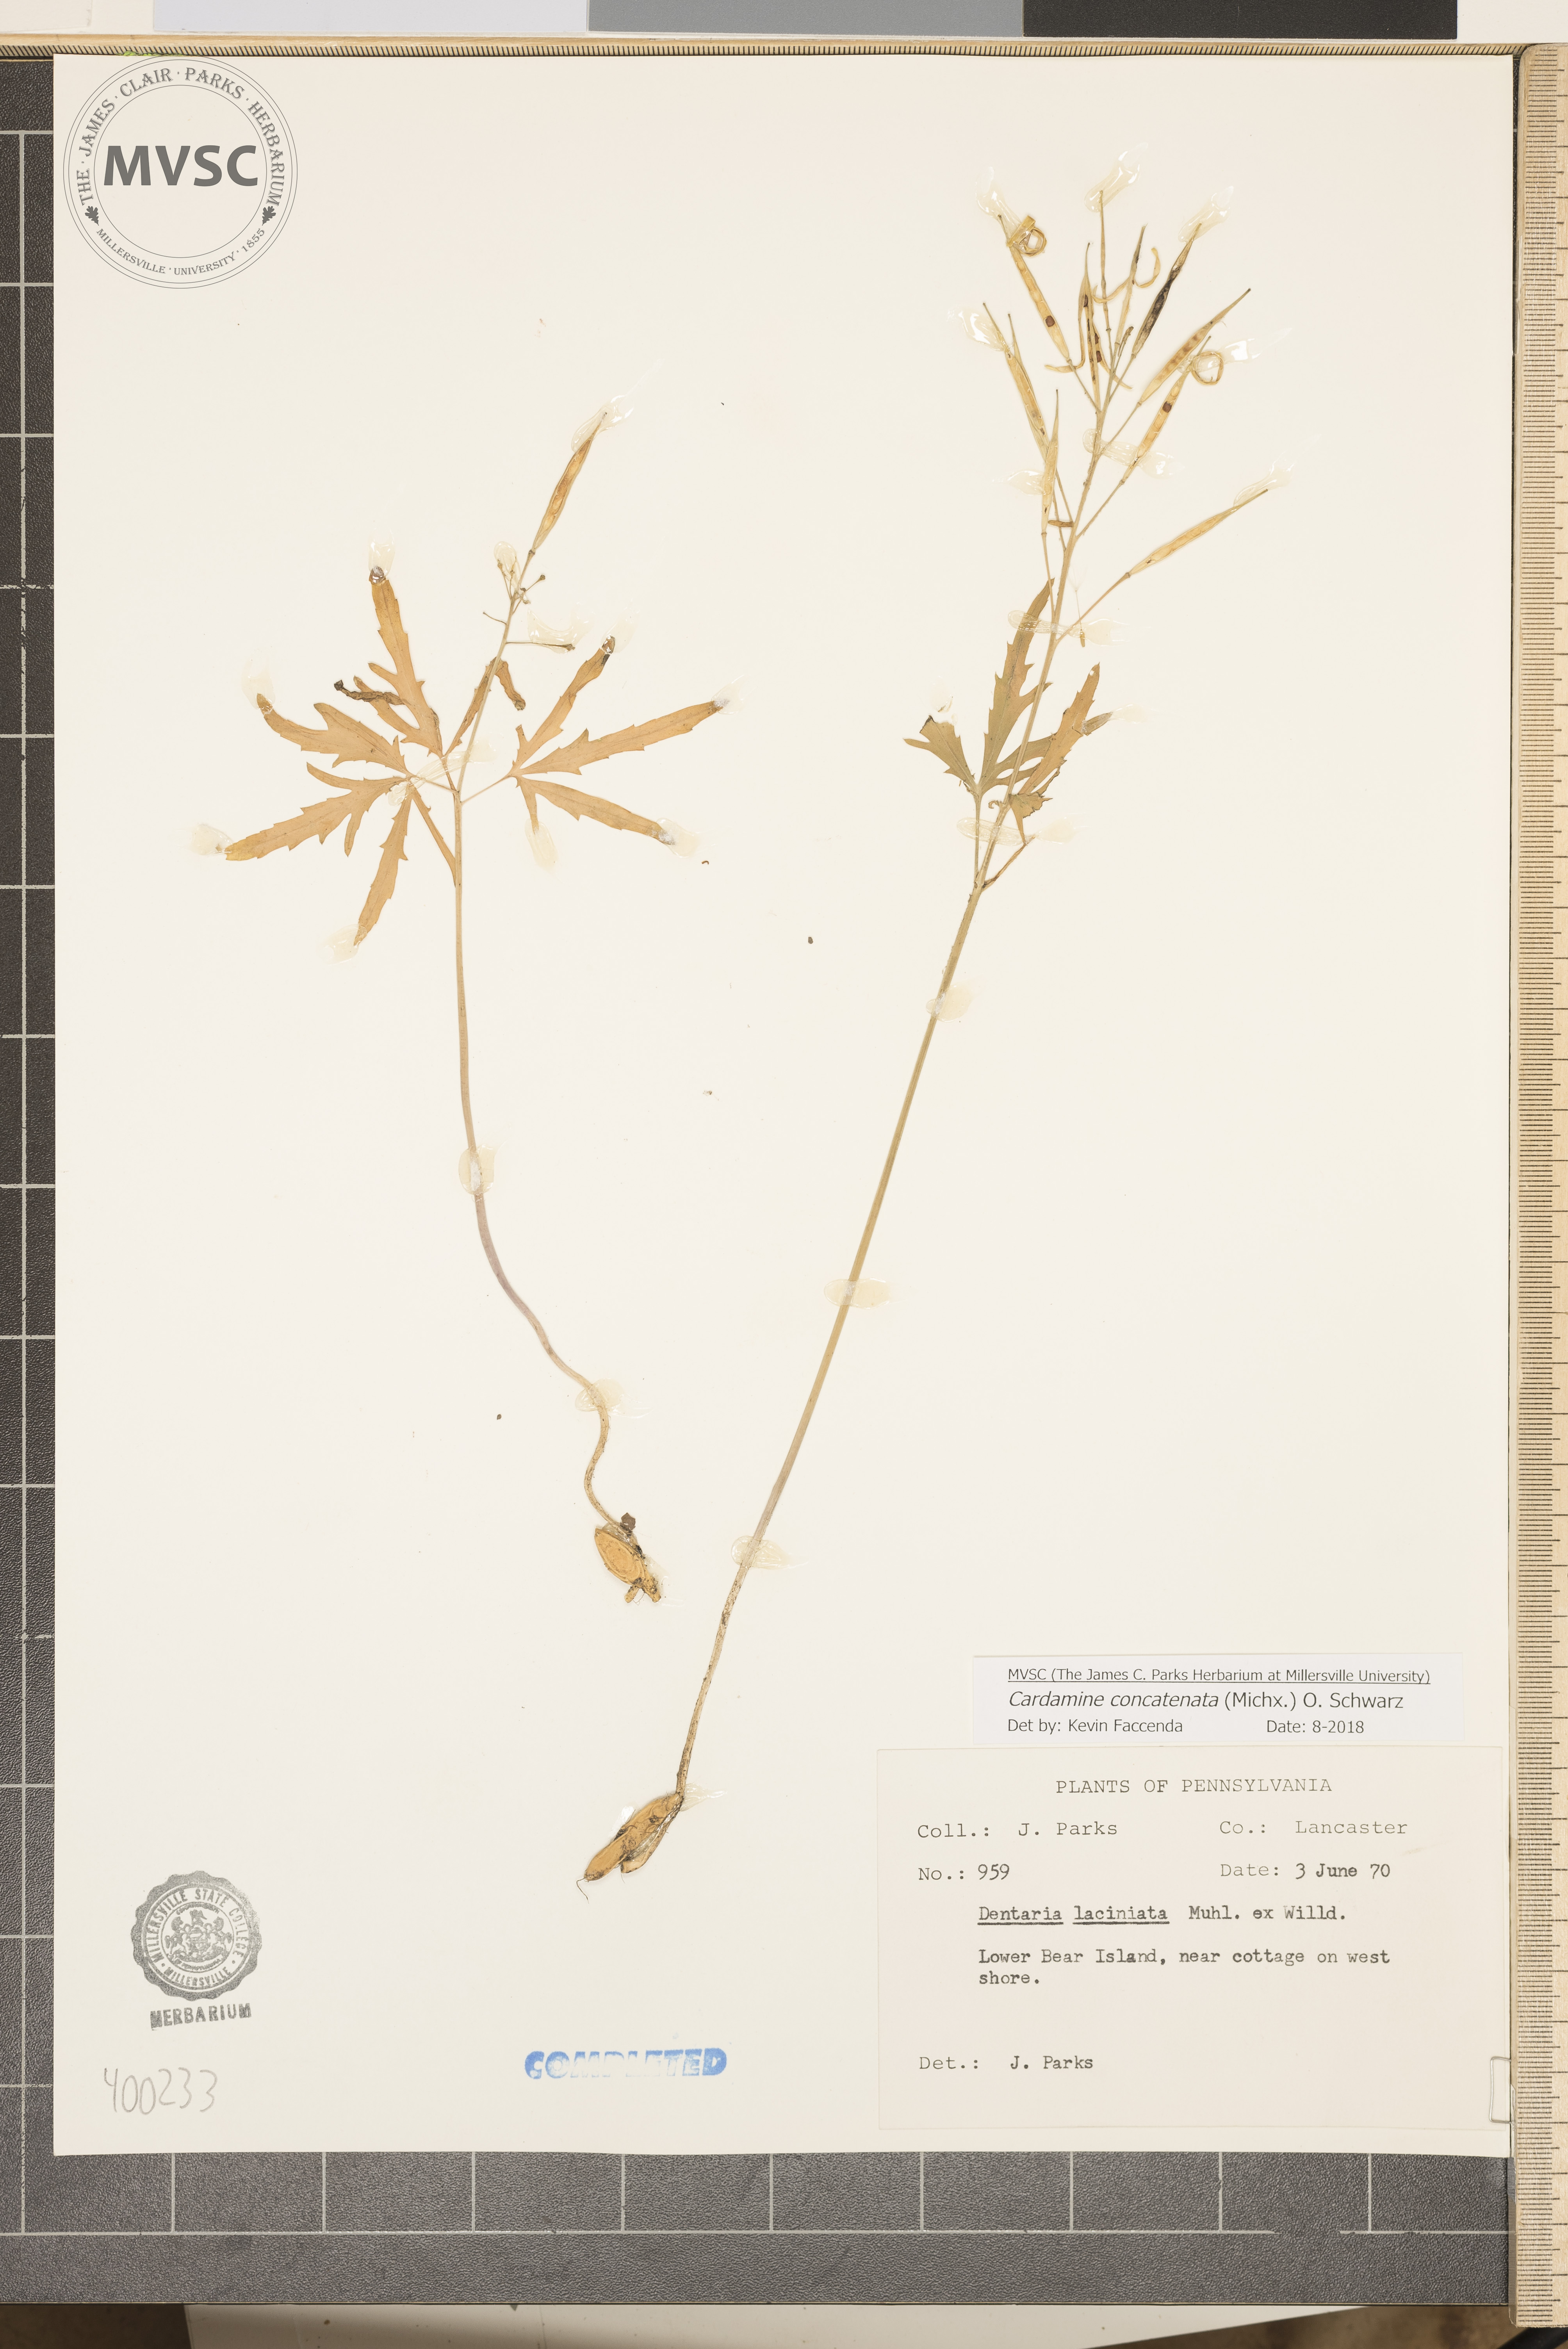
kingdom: Plantae
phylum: Tracheophyta
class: Magnoliopsida
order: Brassicales
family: Brassicaceae
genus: Cardamine
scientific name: Cardamine concatenata
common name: toothwort
